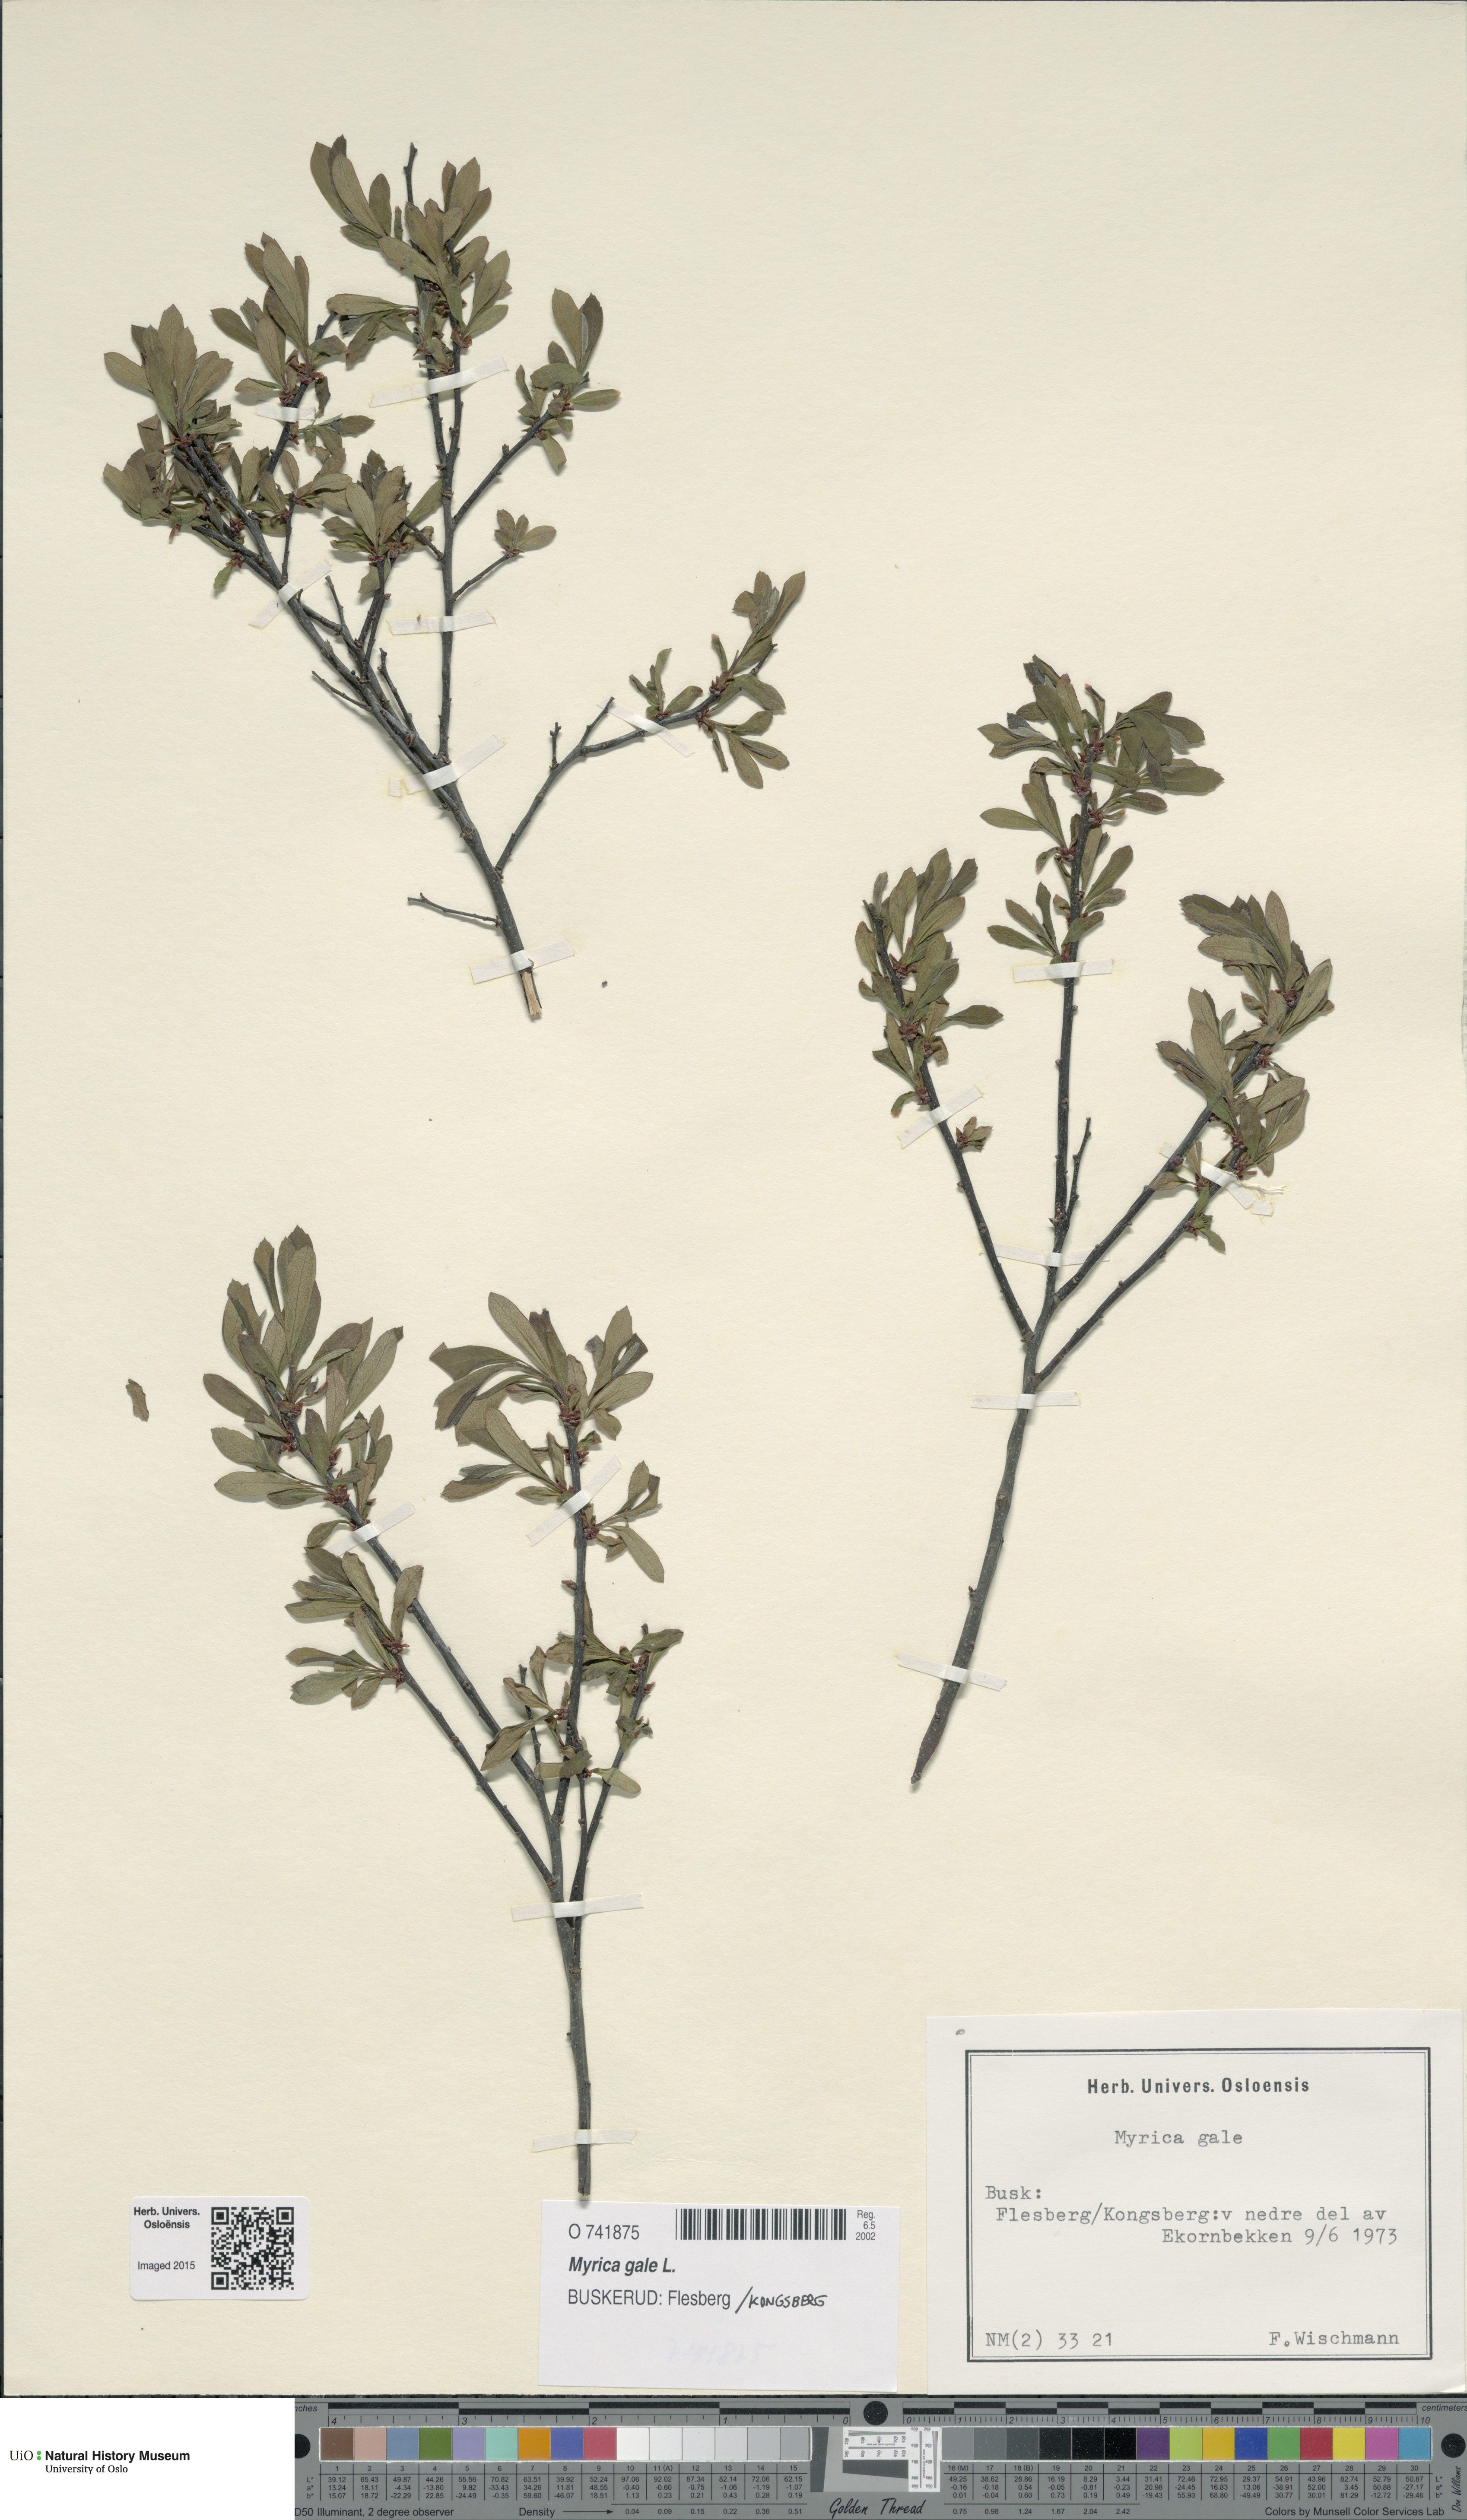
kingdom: Plantae
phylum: Tracheophyta
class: Magnoliopsida
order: Fagales
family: Myricaceae
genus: Myrica
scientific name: Myrica gale
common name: Sweet gale
